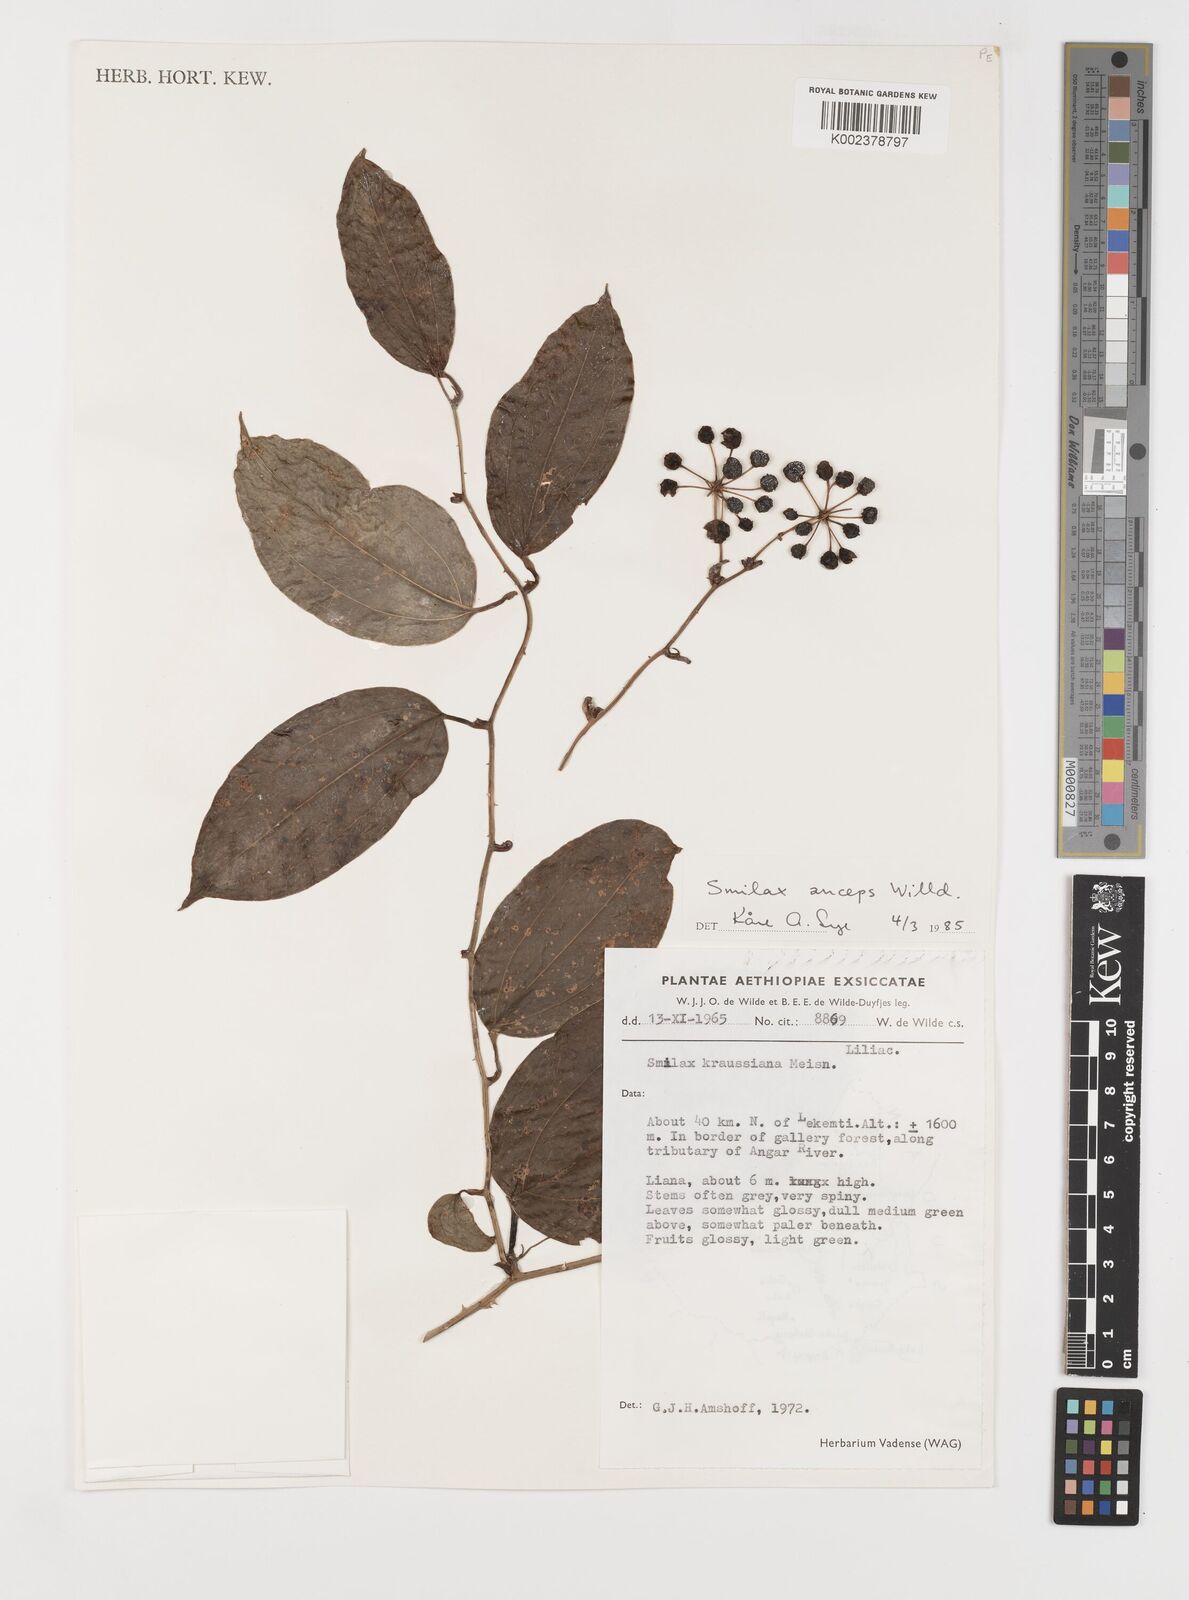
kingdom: Plantae
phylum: Tracheophyta
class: Liliopsida
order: Liliales
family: Smilacaceae
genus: Smilax
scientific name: Smilax anceps
